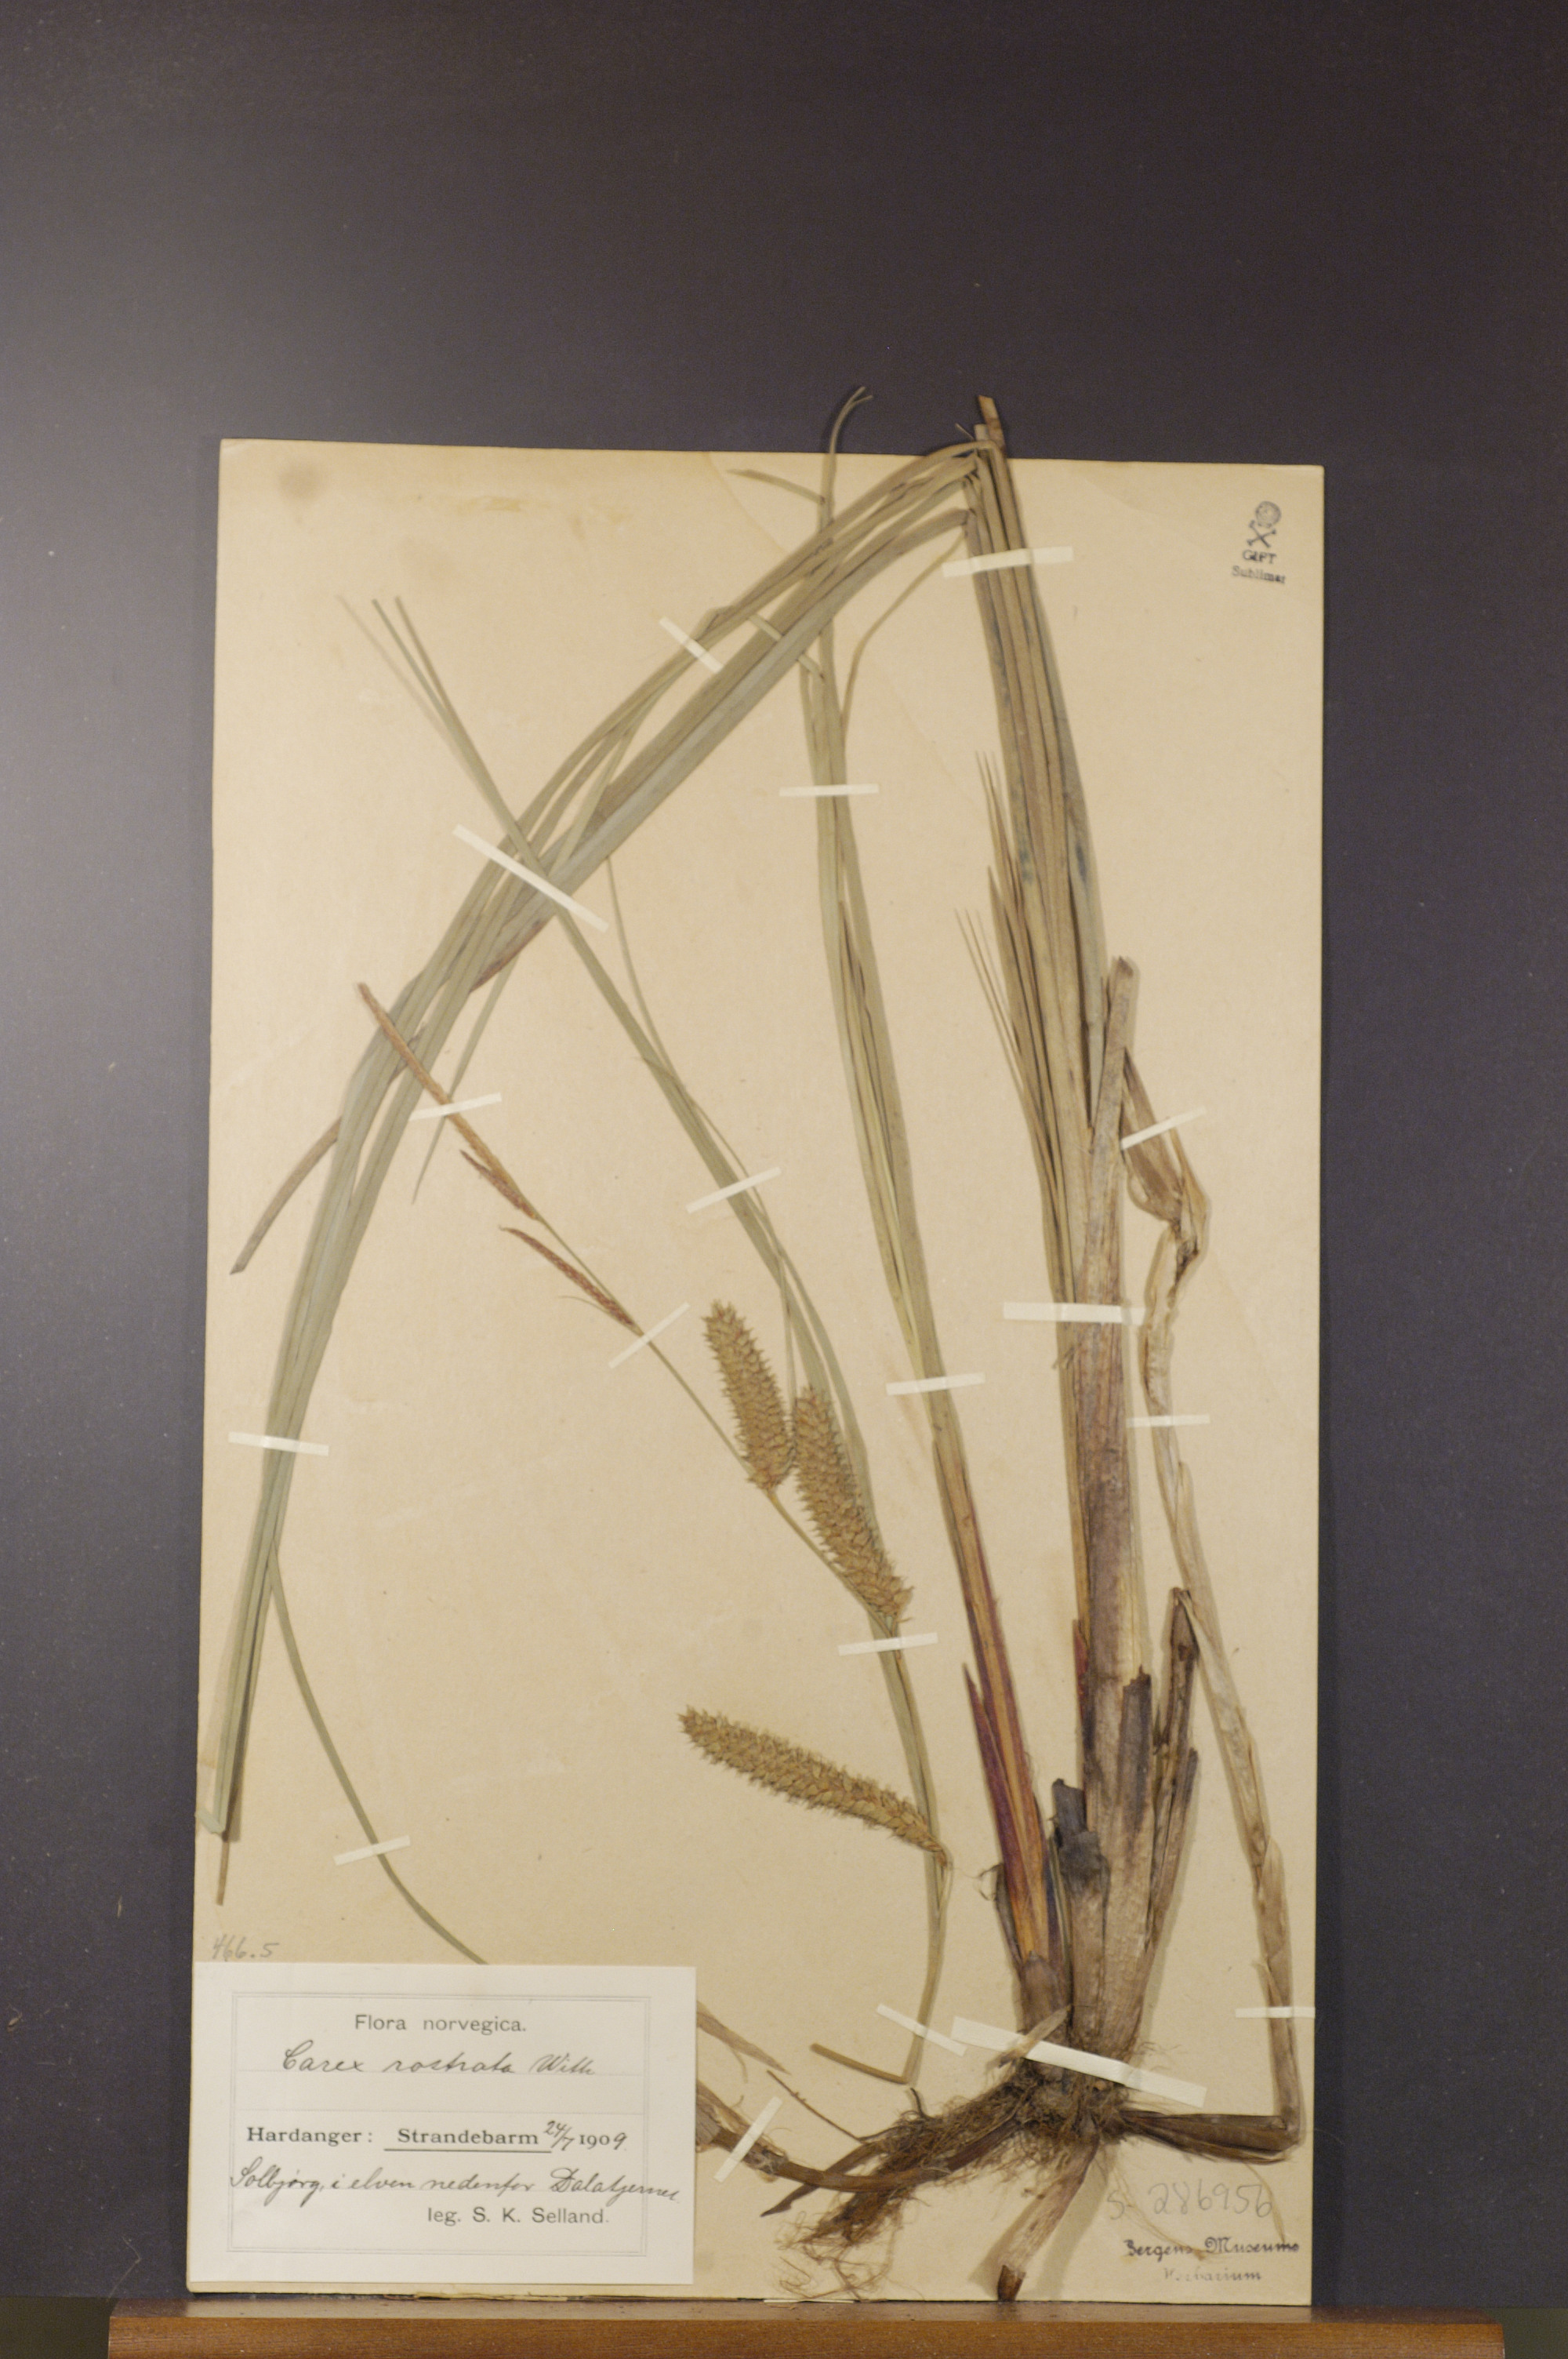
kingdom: Plantae
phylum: Tracheophyta
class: Liliopsida
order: Poales
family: Cyperaceae
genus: Carex
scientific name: Carex rostrata
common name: Bottle sedge
